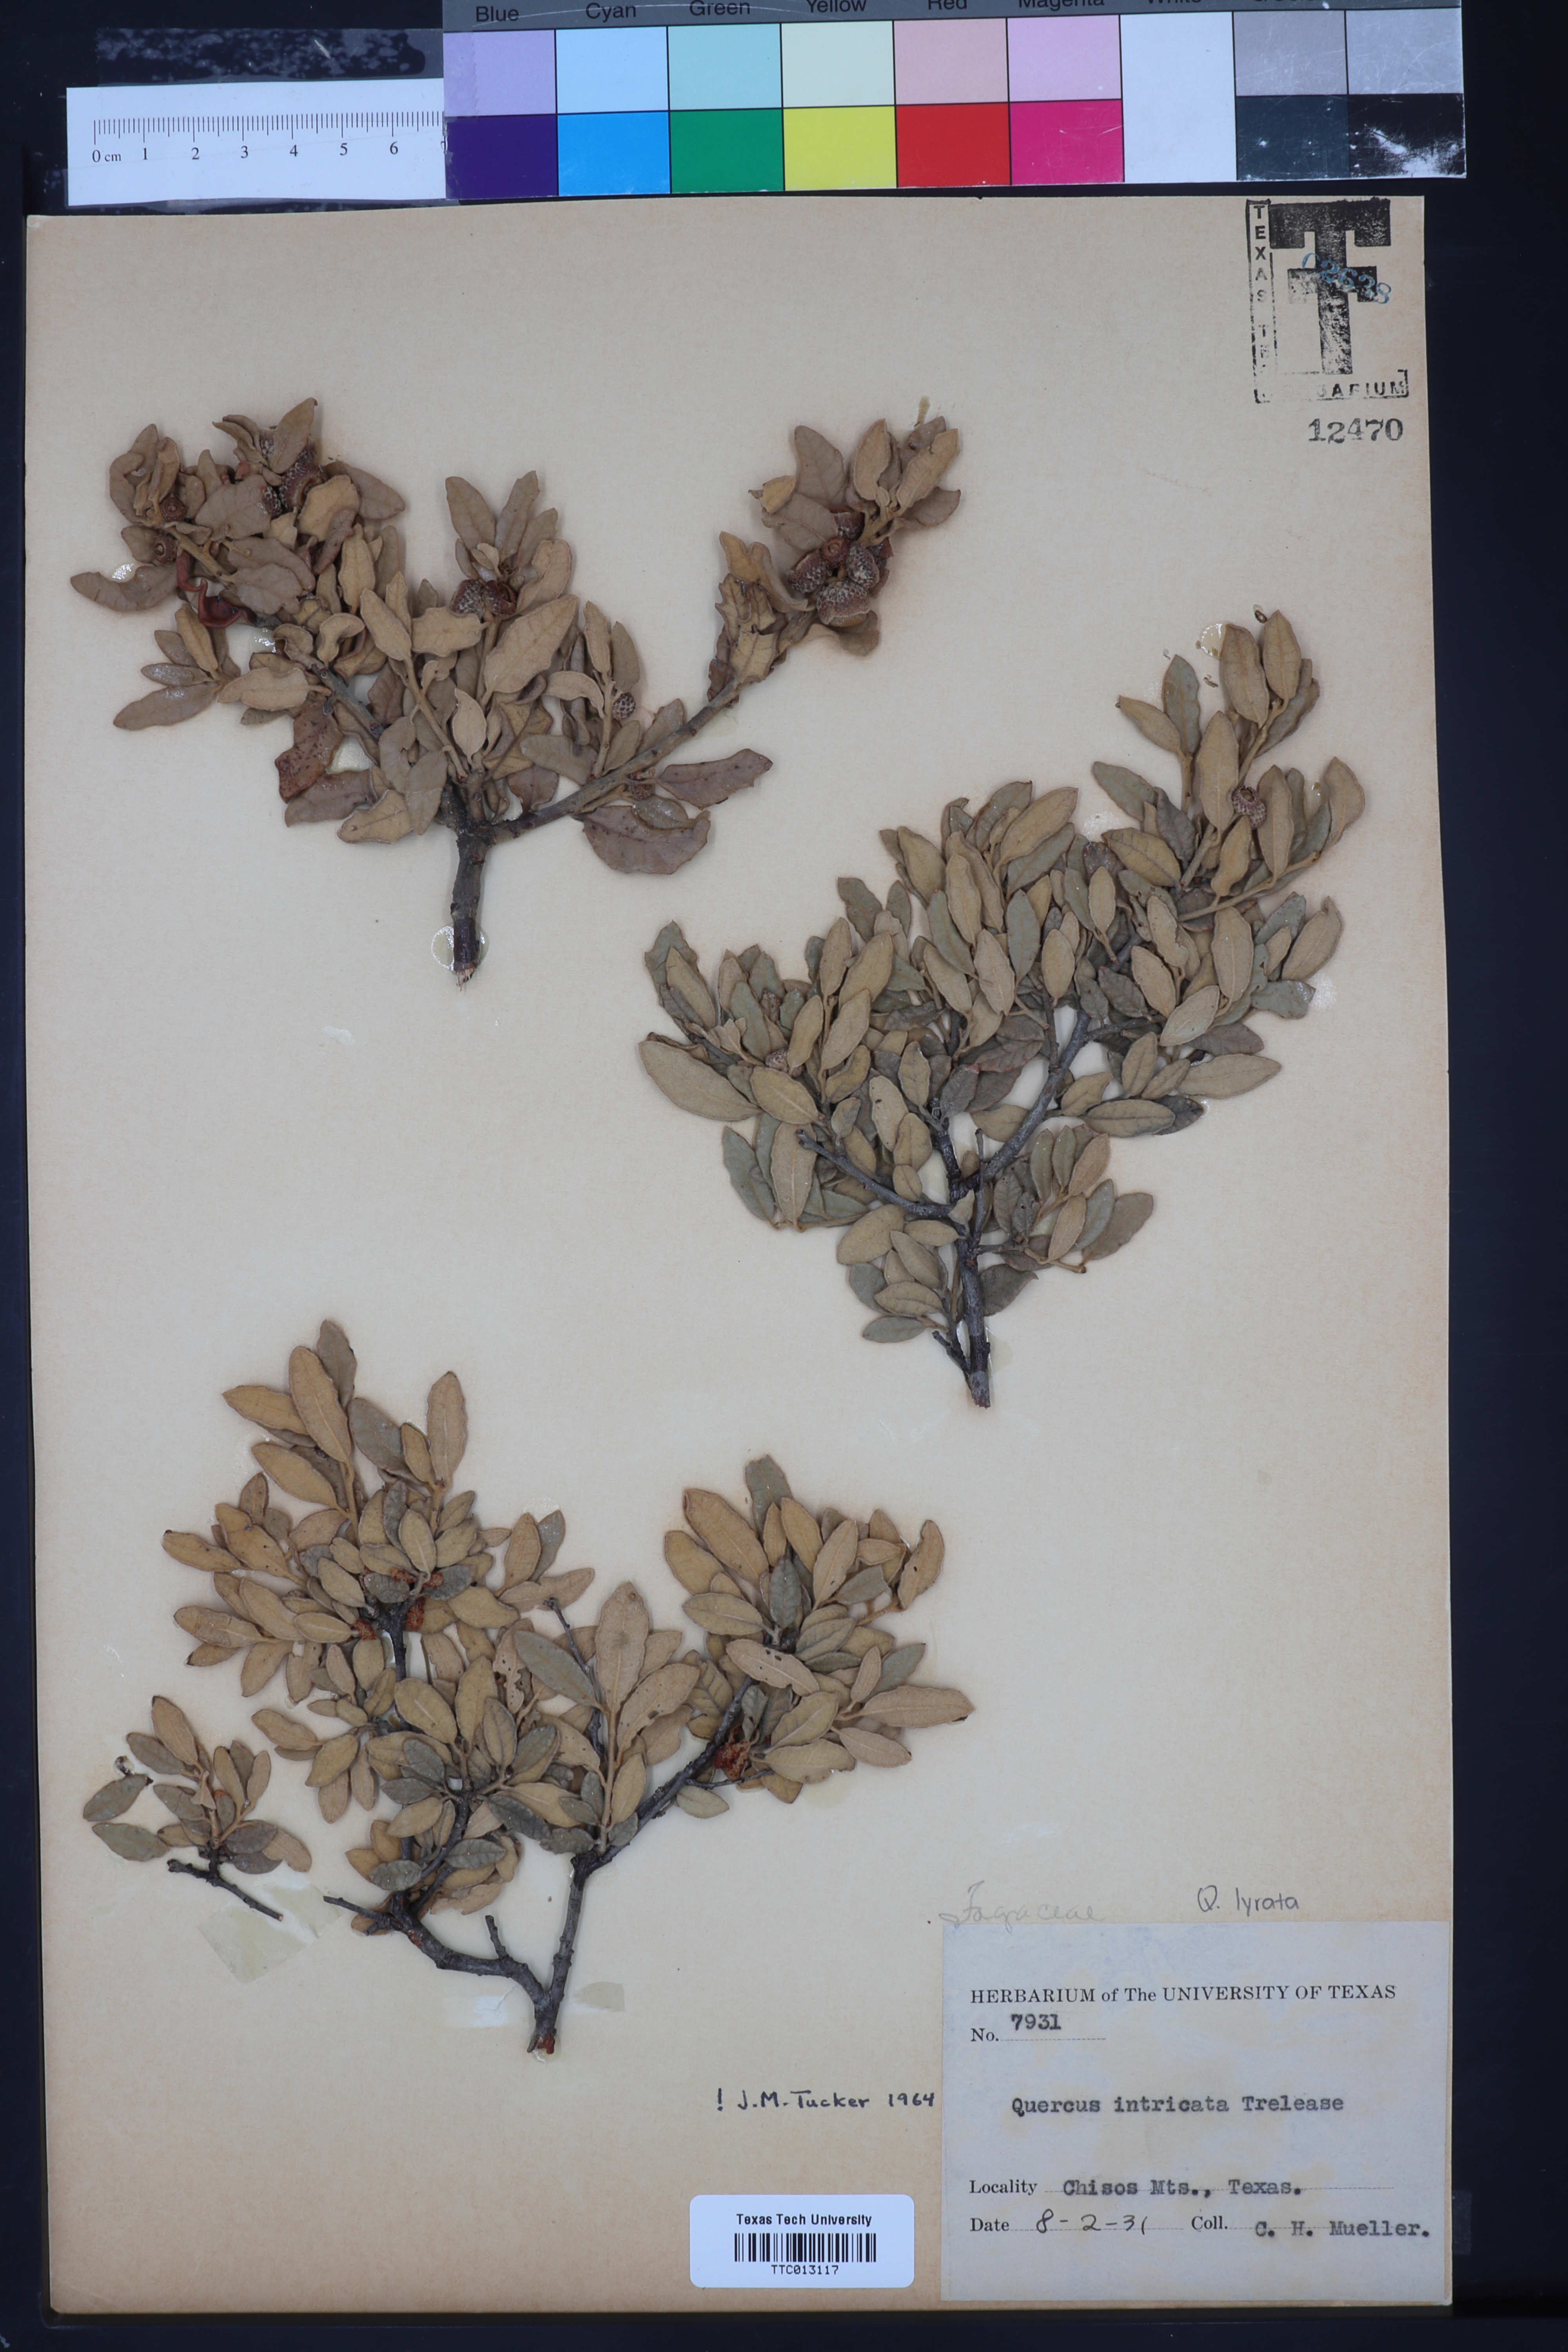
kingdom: Plantae
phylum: Tracheophyta
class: Magnoliopsida
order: Fagales
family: Fagaceae
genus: Quercus
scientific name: Quercus intricata
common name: Dwarf oak
